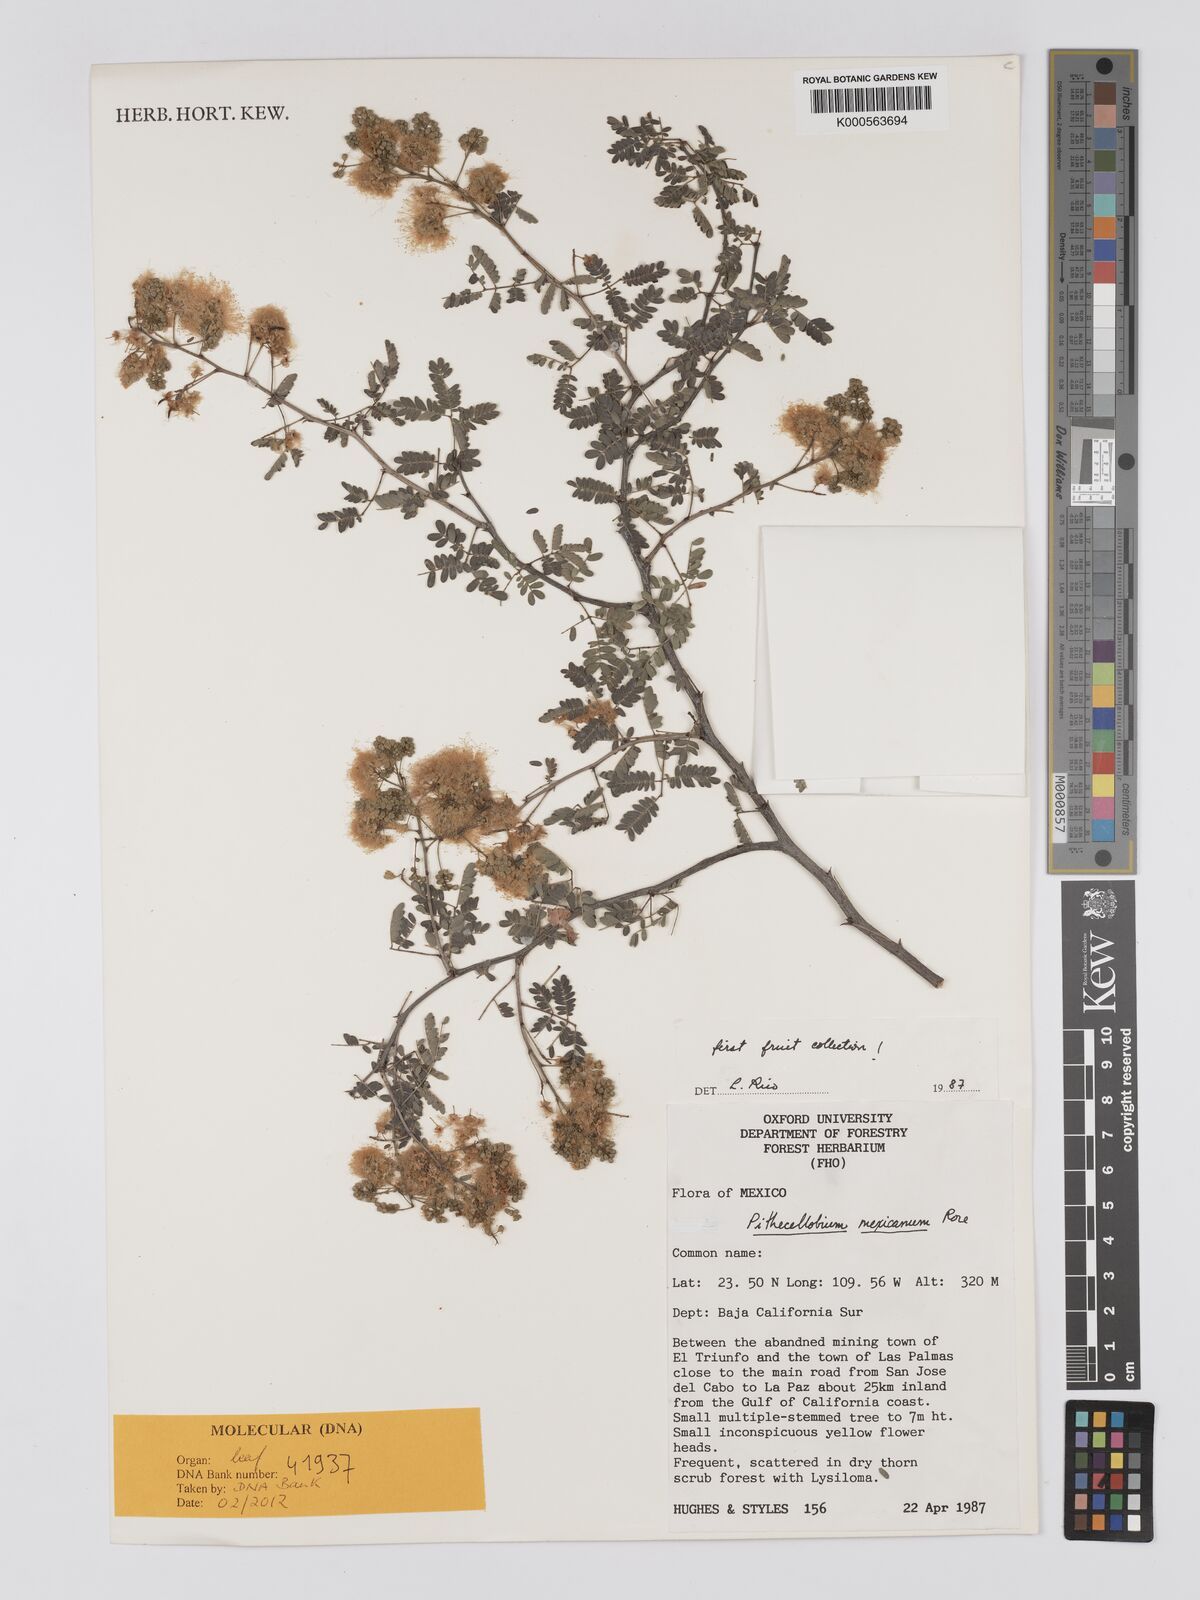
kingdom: Plantae
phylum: Tracheophyta
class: Magnoliopsida
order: Fabales
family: Fabaceae
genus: Havardia
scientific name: Havardia mexicana
